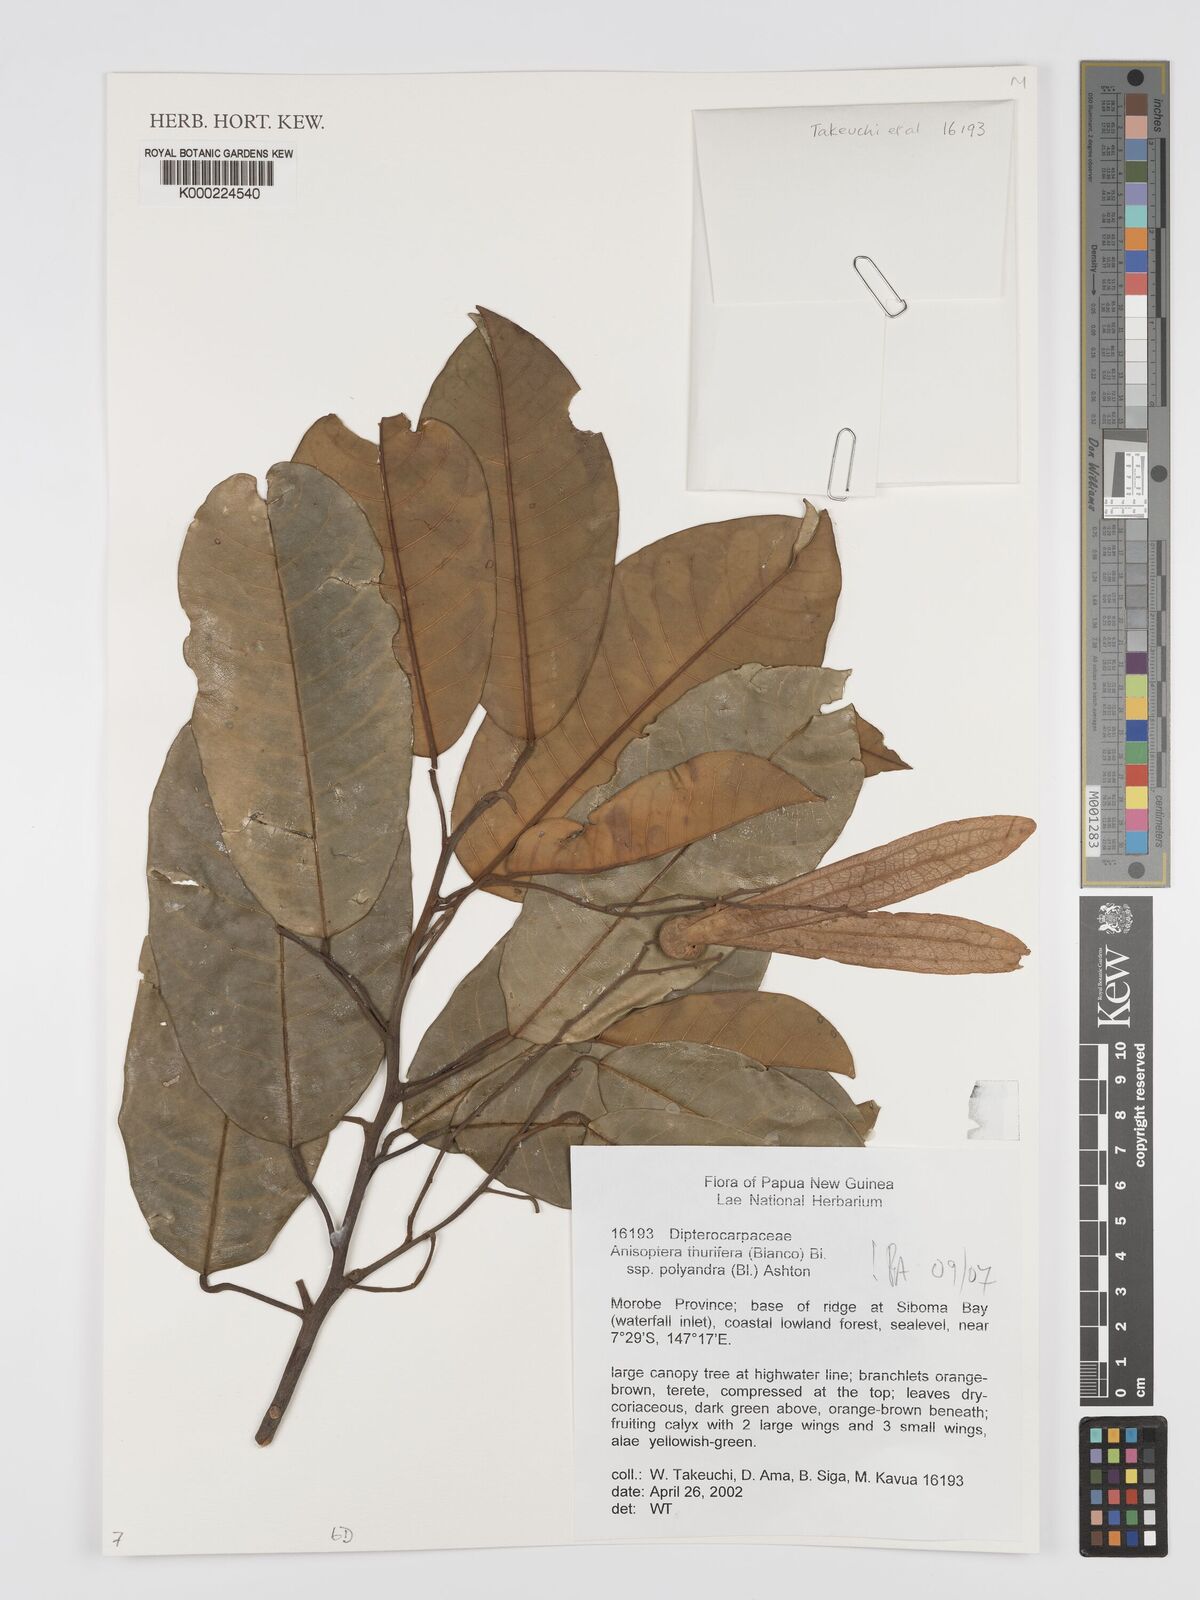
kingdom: Plantae
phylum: Tracheophyta
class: Magnoliopsida
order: Sapindales
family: Meliaceae
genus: Dysoxylum
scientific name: Dysoxylum
